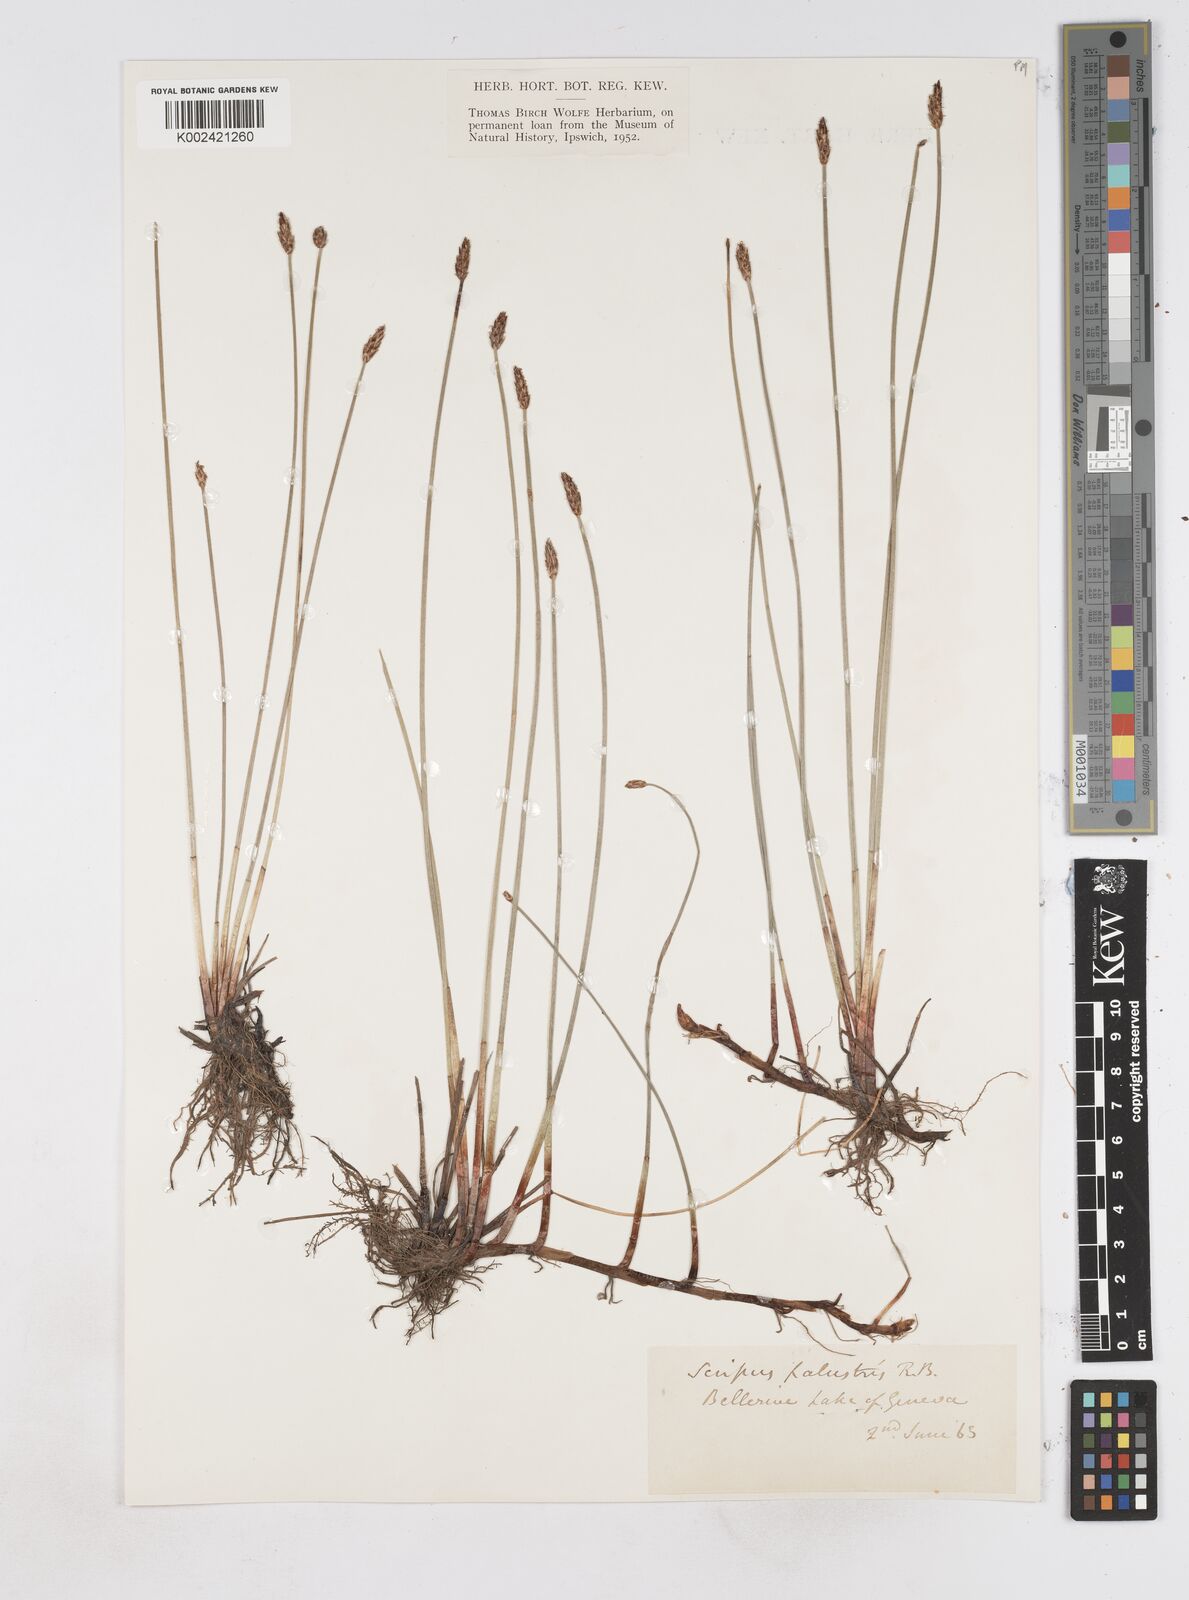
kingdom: Plantae
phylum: Tracheophyta
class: Liliopsida
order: Poales
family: Cyperaceae
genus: Eleocharis
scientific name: Eleocharis palustris
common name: Common spike-rush
